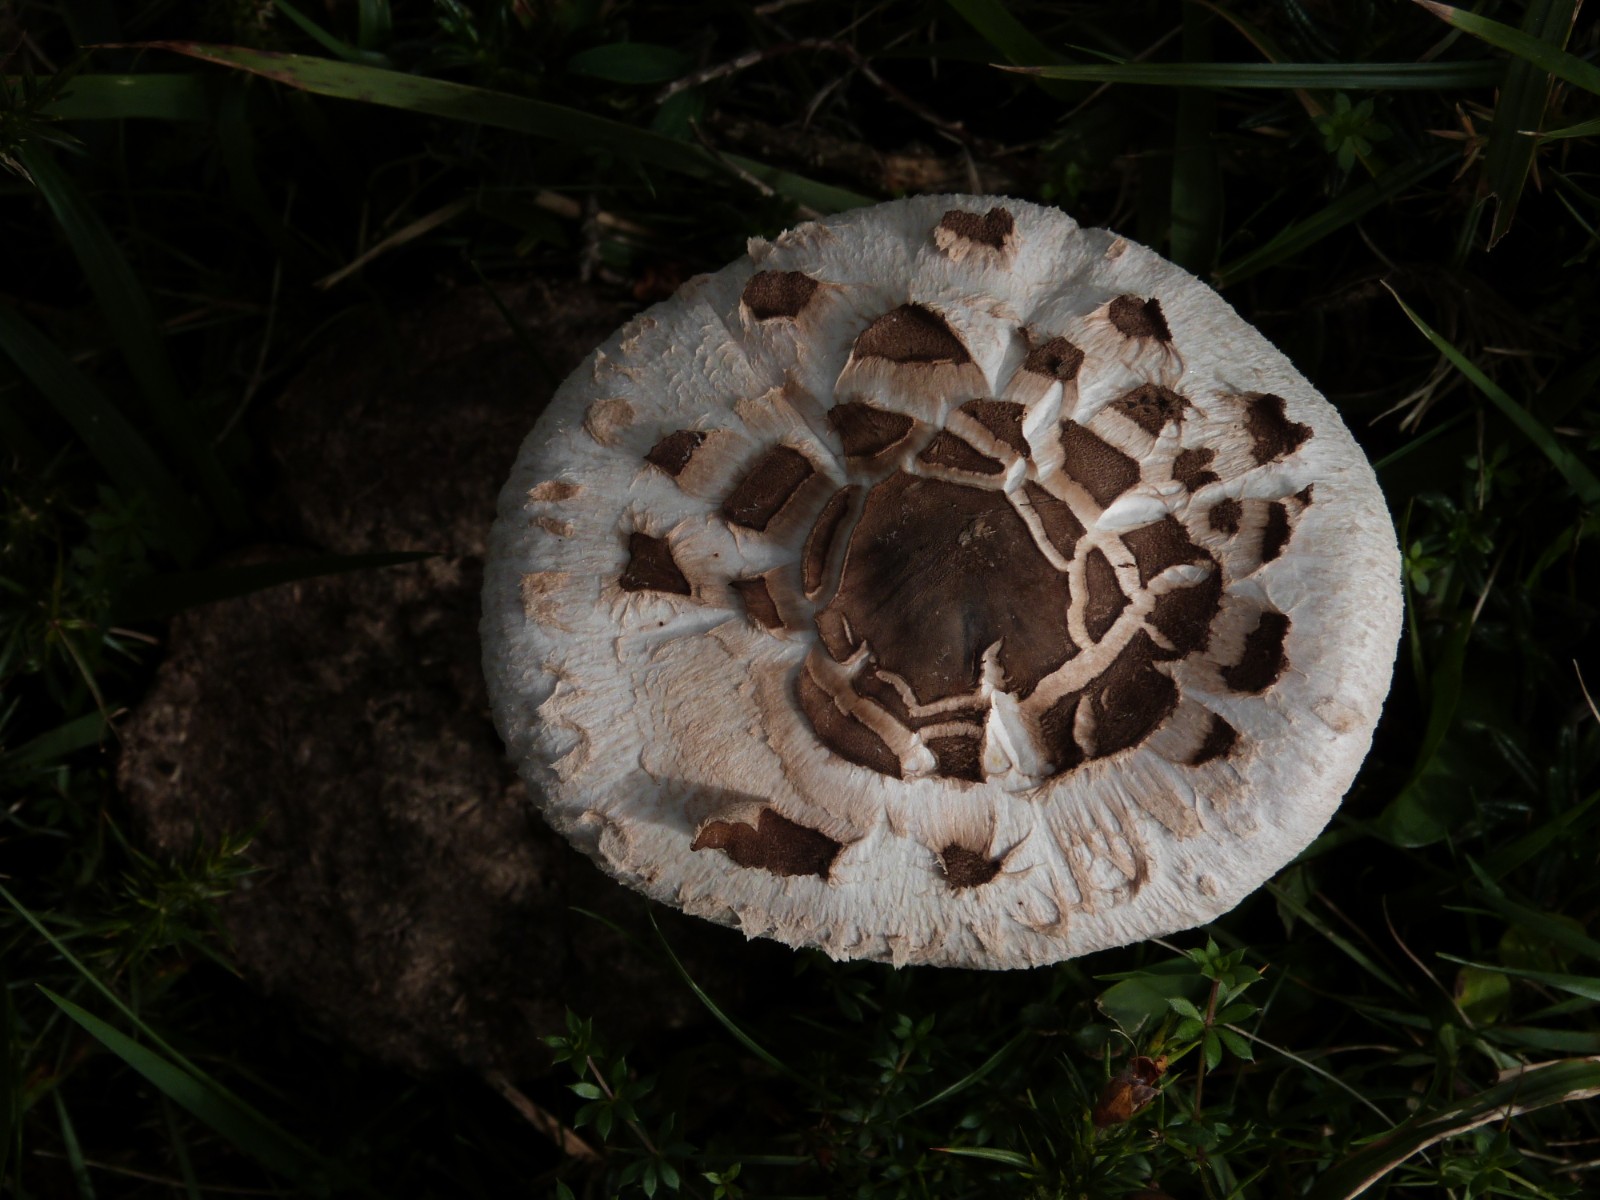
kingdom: Fungi
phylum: Basidiomycota
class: Agaricomycetes
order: Agaricales
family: Agaricaceae
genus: Macrolepiota
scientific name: Macrolepiota
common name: kæmpeparasolhat
